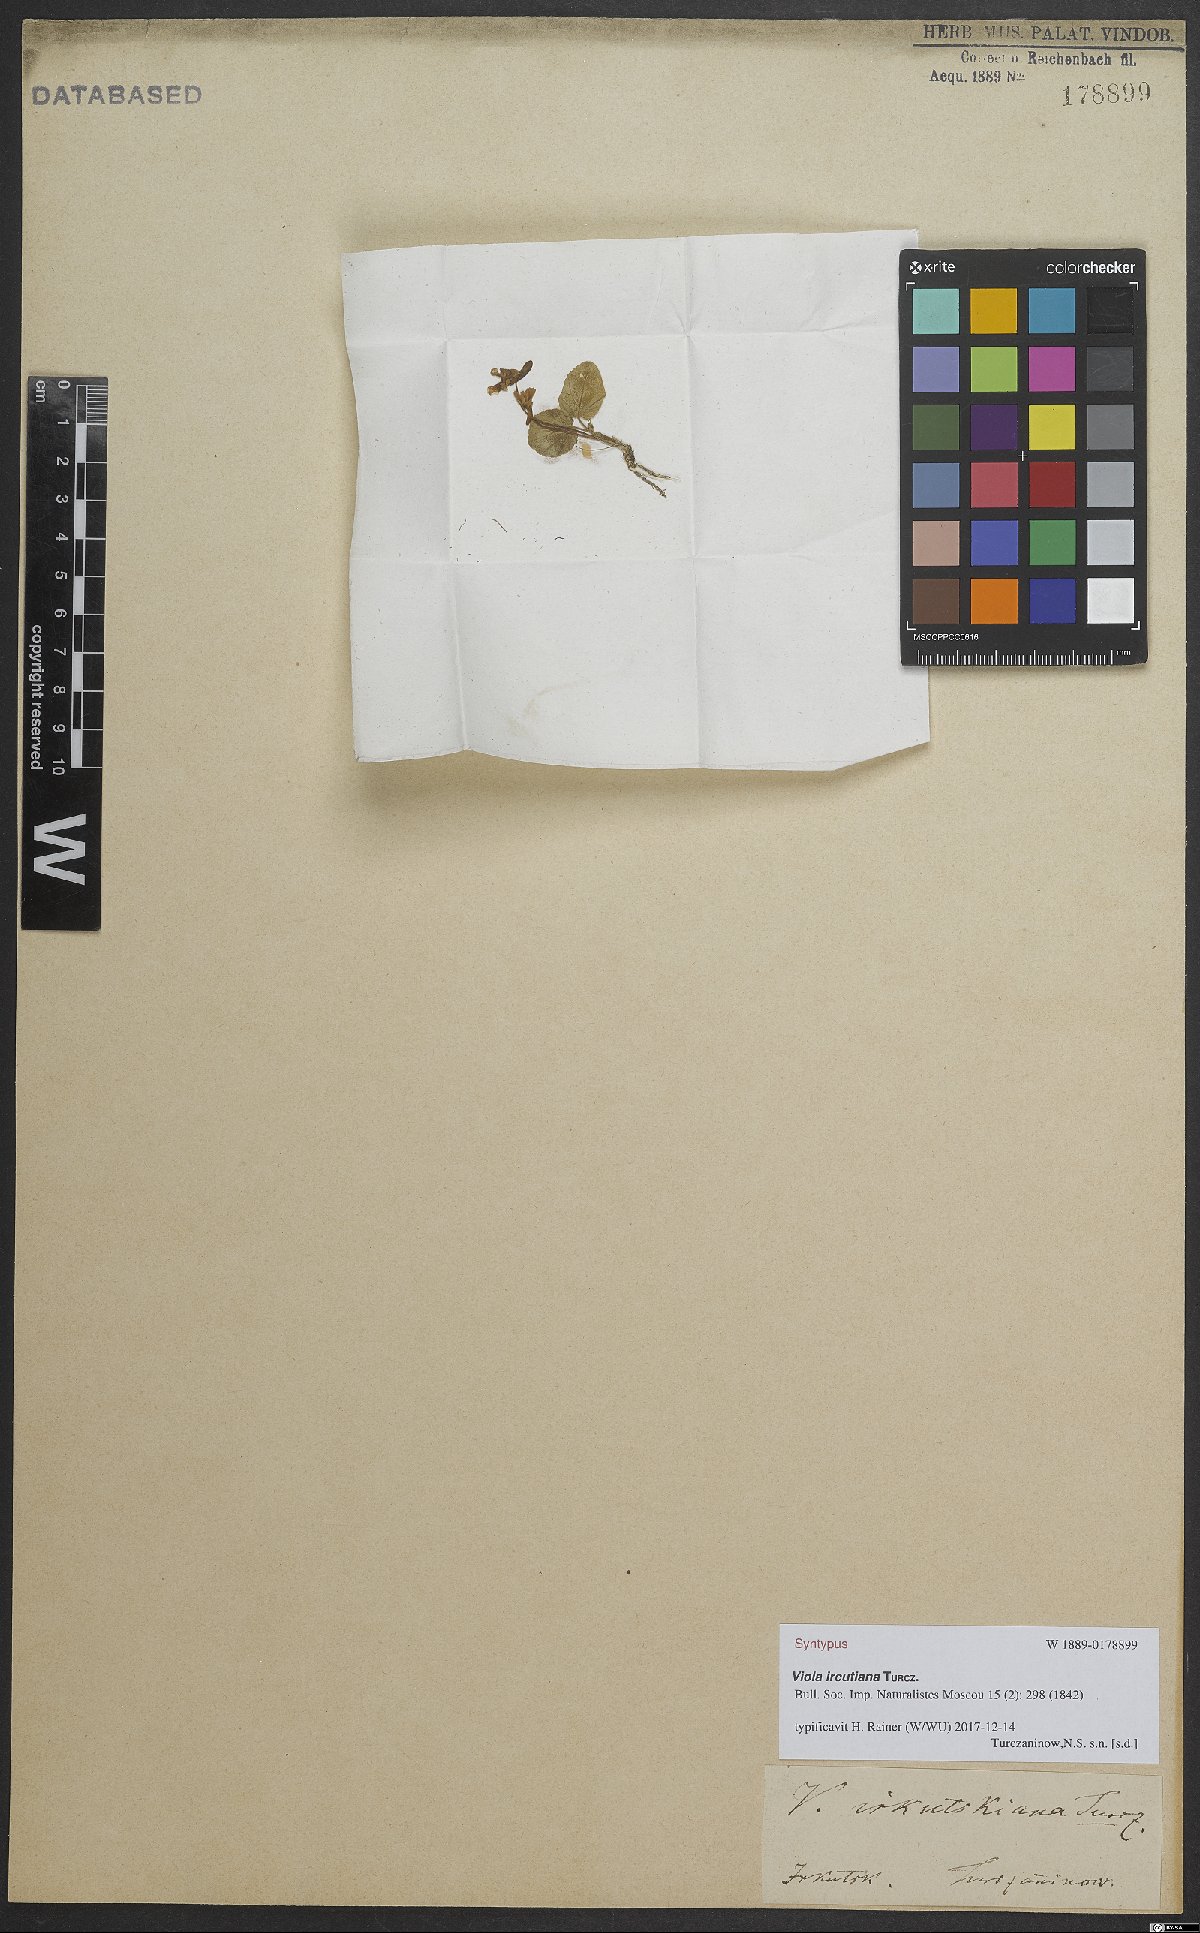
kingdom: Plantae
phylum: Tracheophyta
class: Magnoliopsida
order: Malpighiales
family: Violaceae
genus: Viola
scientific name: Viola tenuicornis
